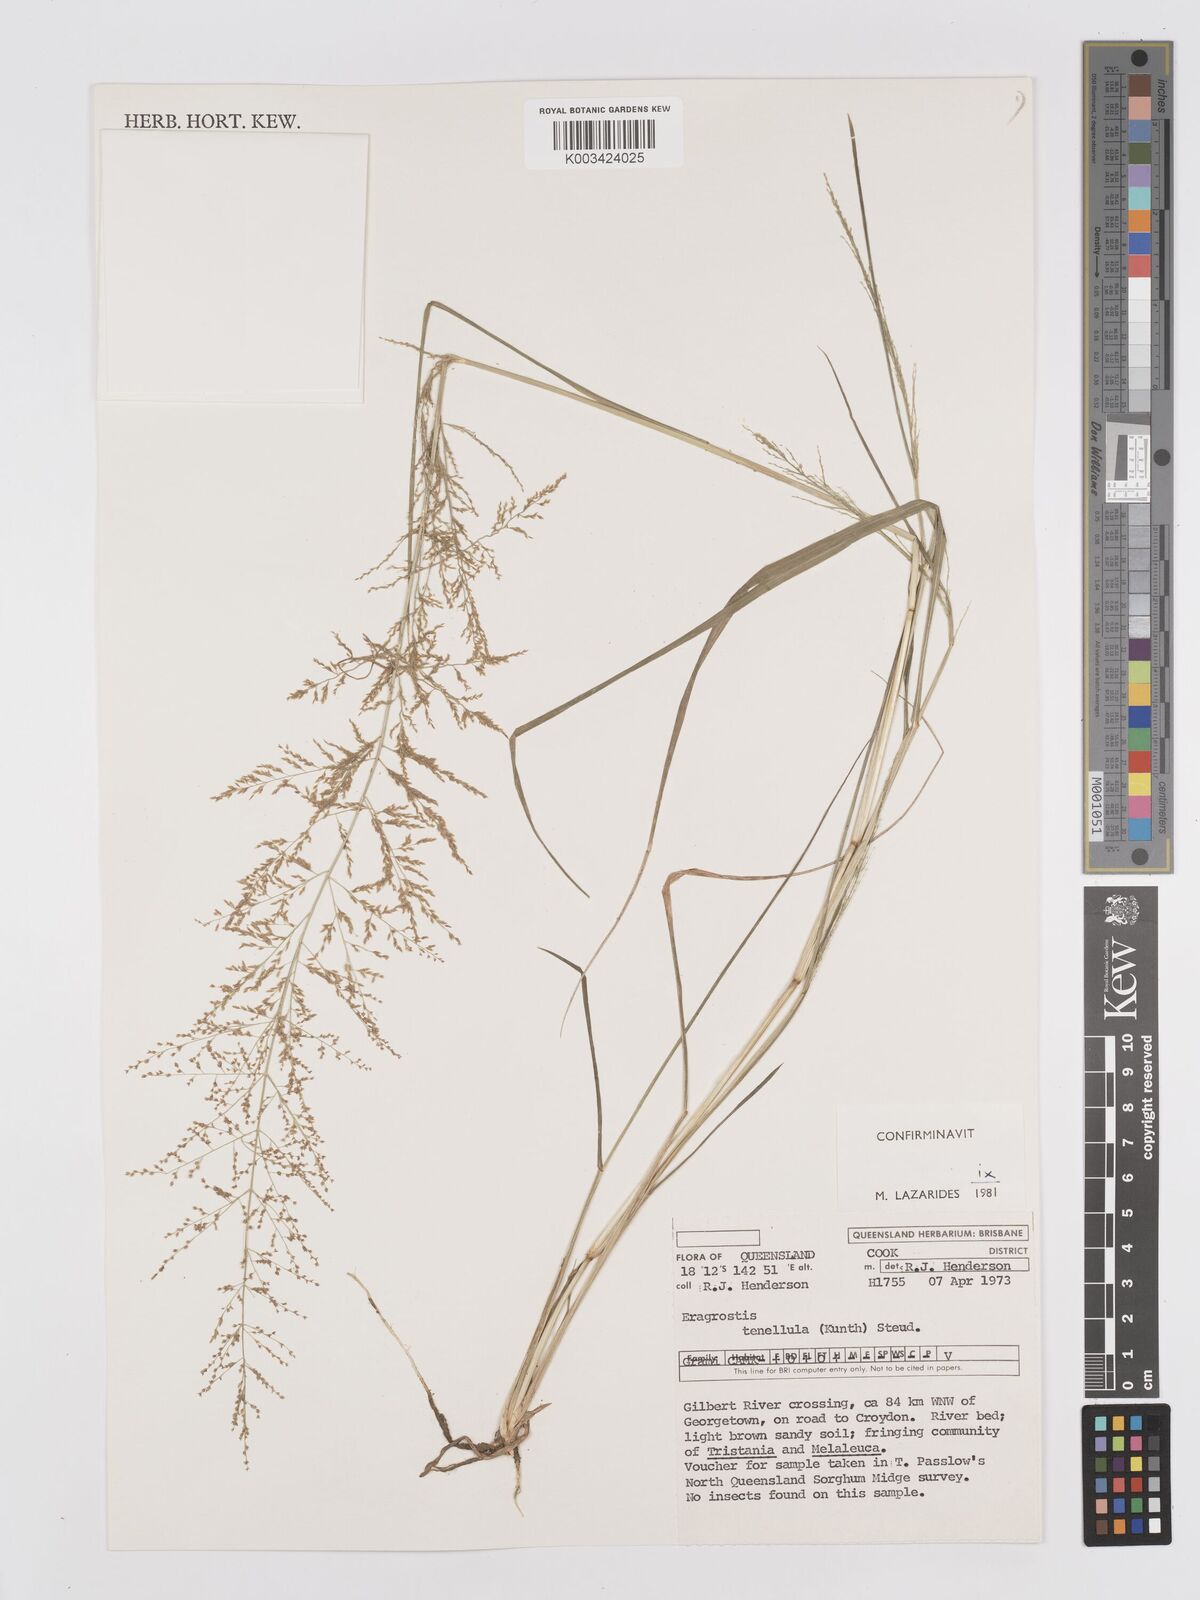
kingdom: Plantae
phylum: Tracheophyta
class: Liliopsida
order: Poales
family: Poaceae
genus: Eragrostis
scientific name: Eragrostis tenellula
